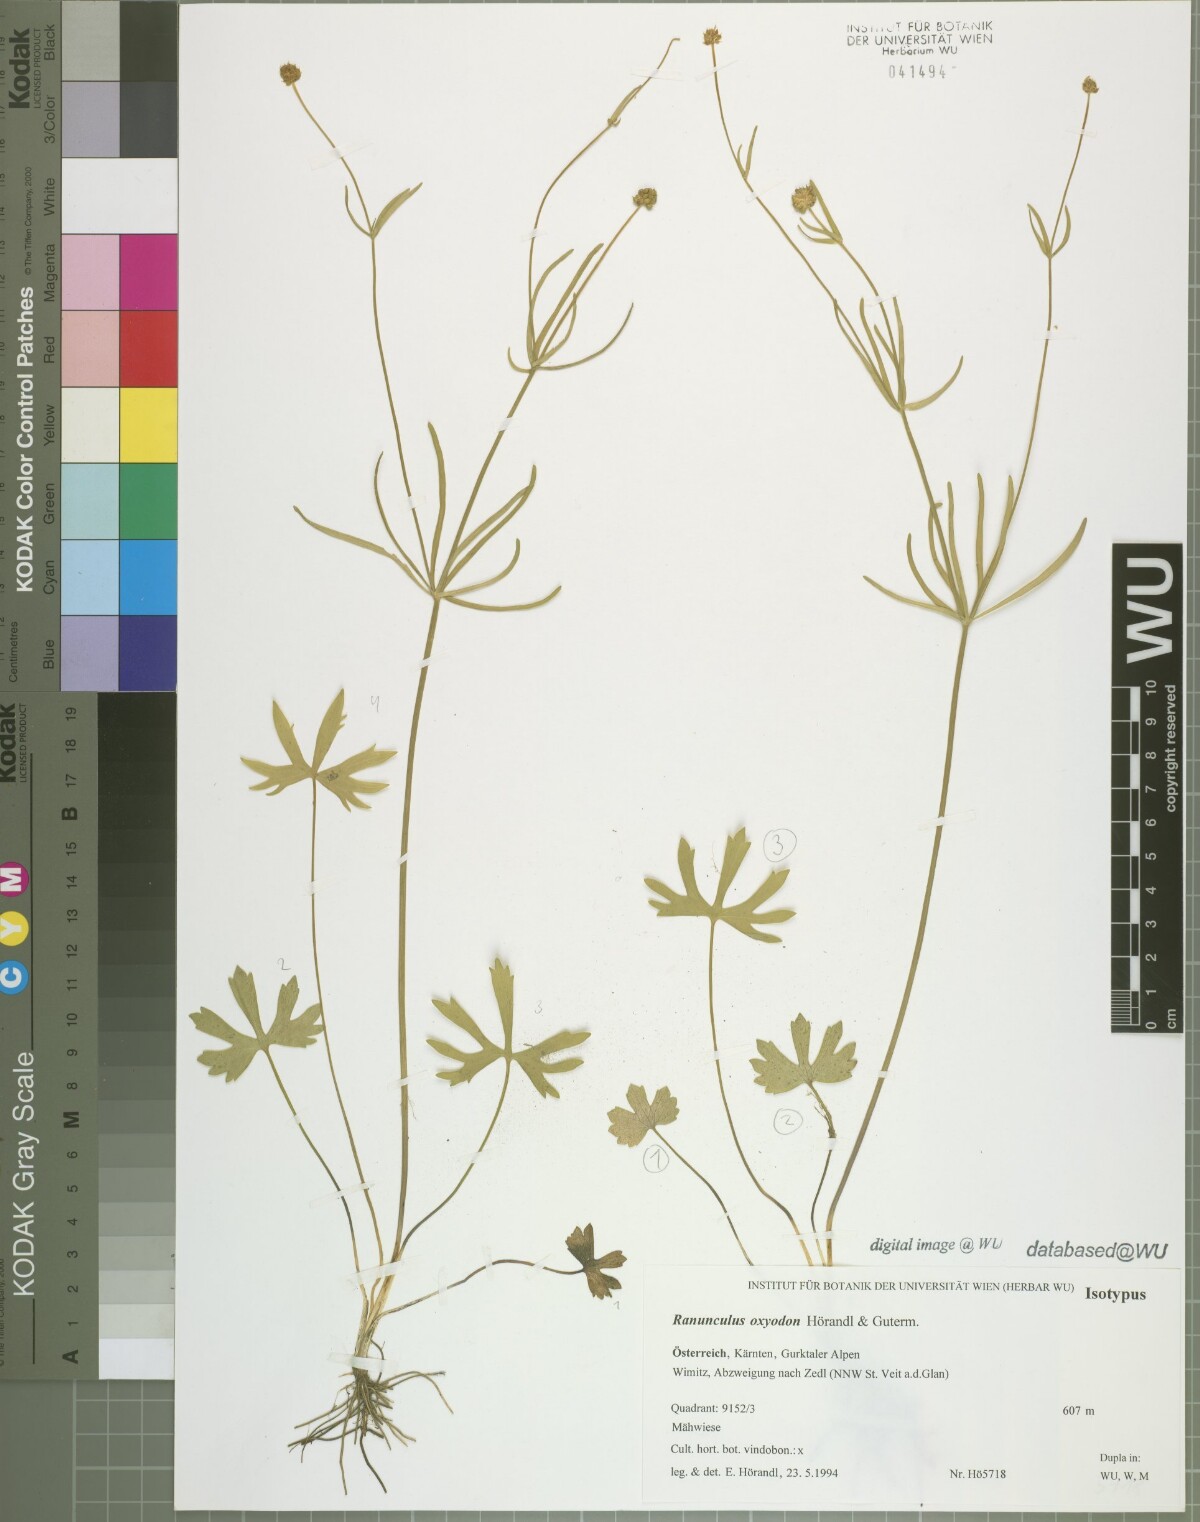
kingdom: Plantae
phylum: Tracheophyta
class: Magnoliopsida
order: Ranunculales
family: Ranunculaceae
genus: Ranunculus
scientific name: Ranunculus oxyodon
